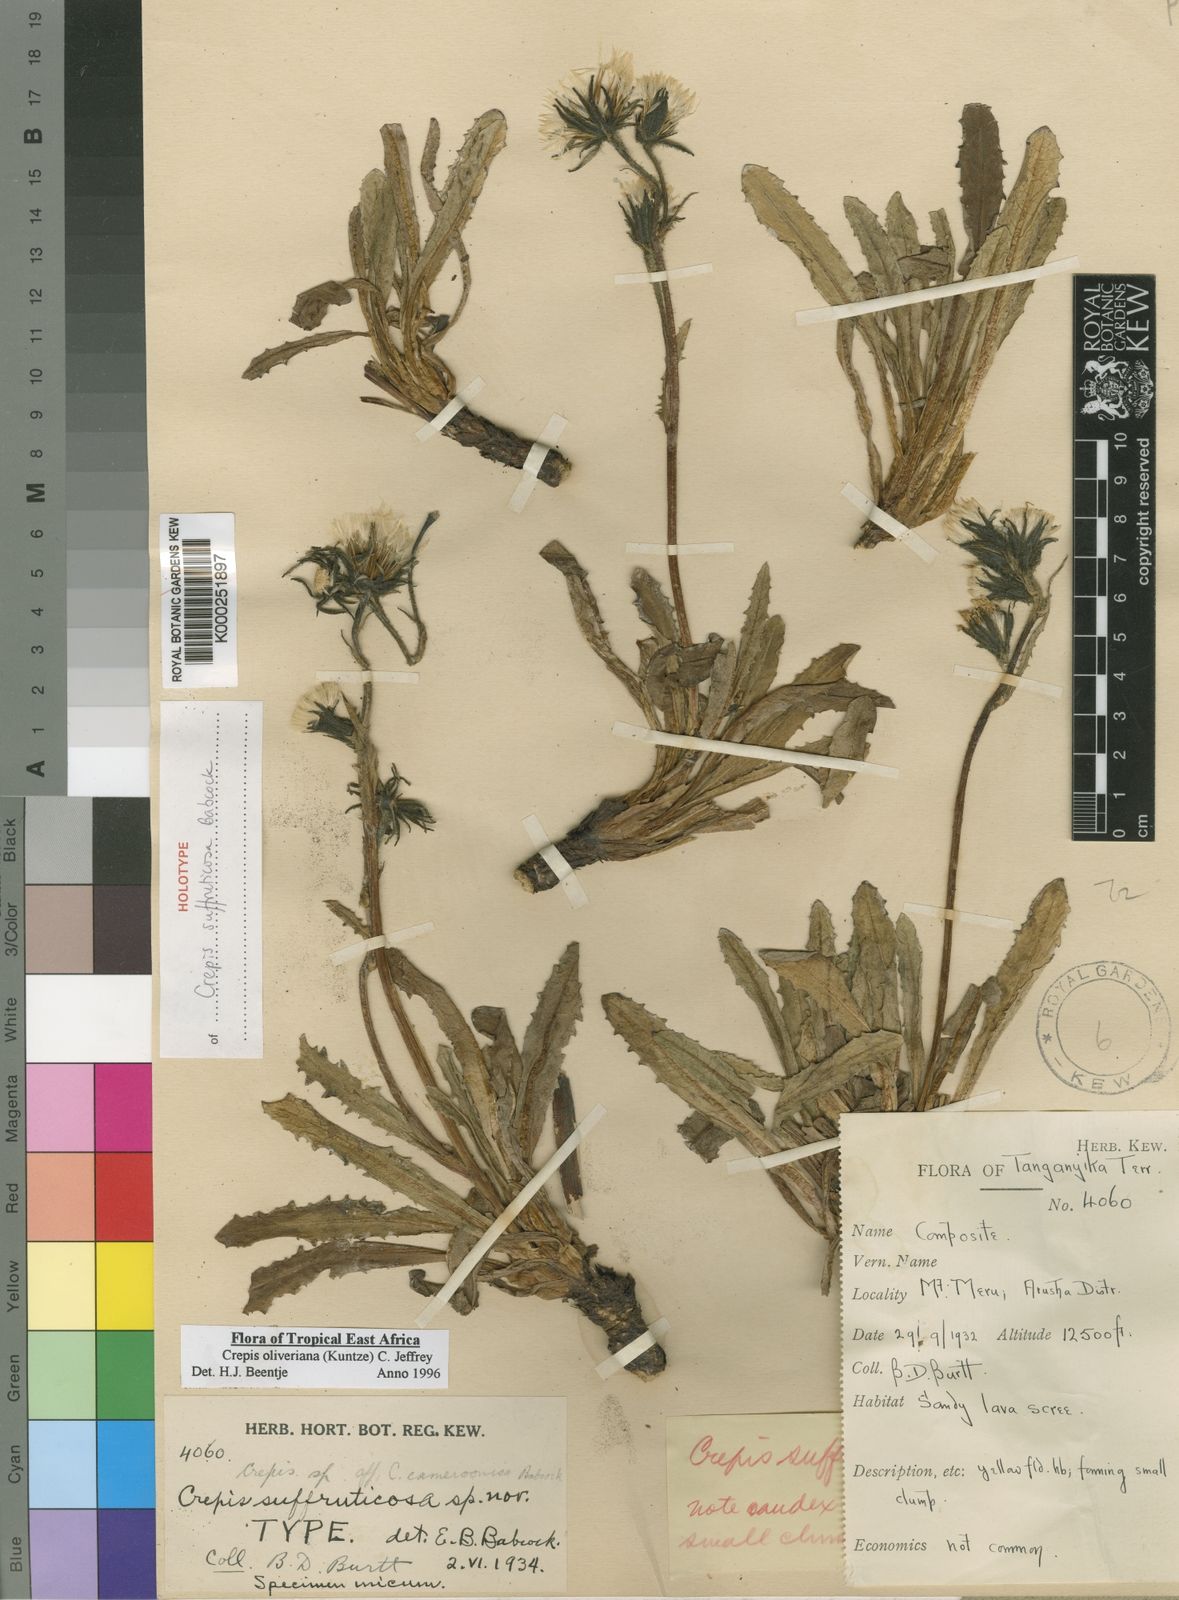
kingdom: Plantae
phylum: Tracheophyta
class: Magnoliopsida
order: Asterales
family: Asteraceae
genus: Crepis
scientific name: Crepis hypochoeridea
